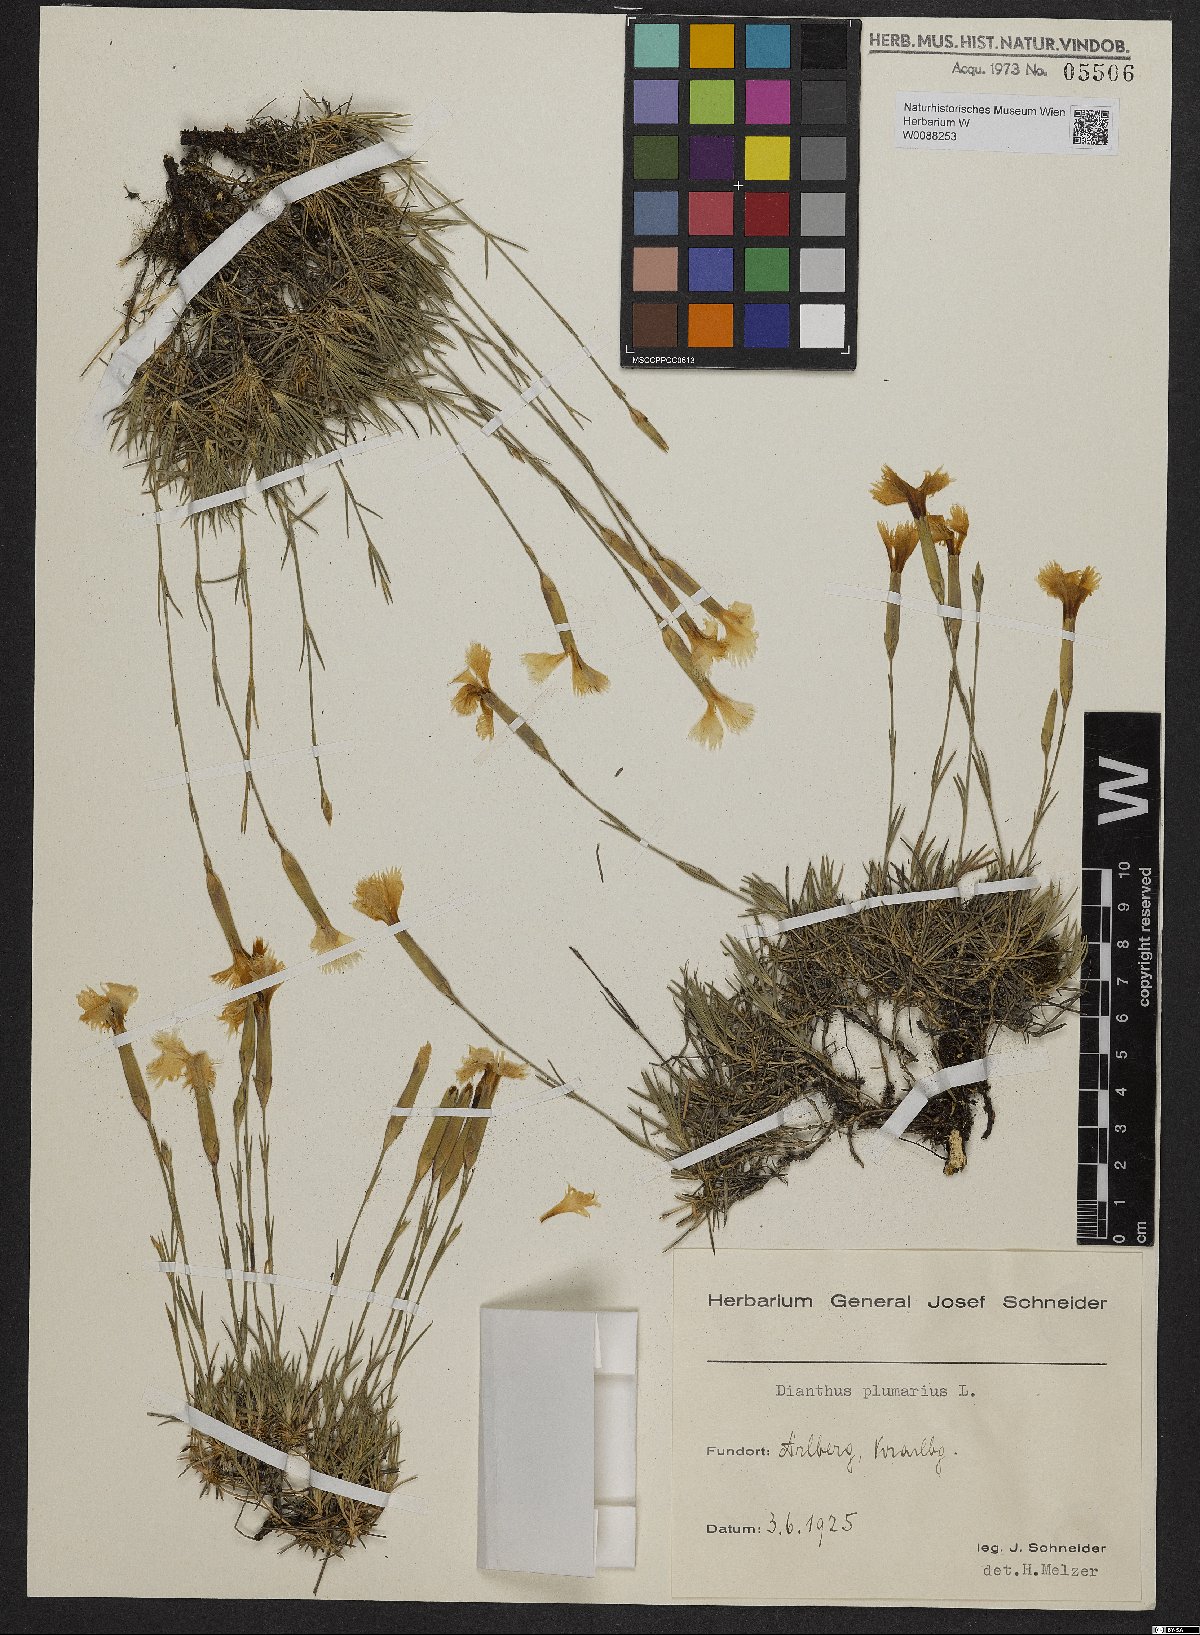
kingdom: Plantae
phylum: Tracheophyta
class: Magnoliopsida
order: Caryophyllales
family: Caryophyllaceae
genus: Dianthus
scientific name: Dianthus plumarius
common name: Pink
